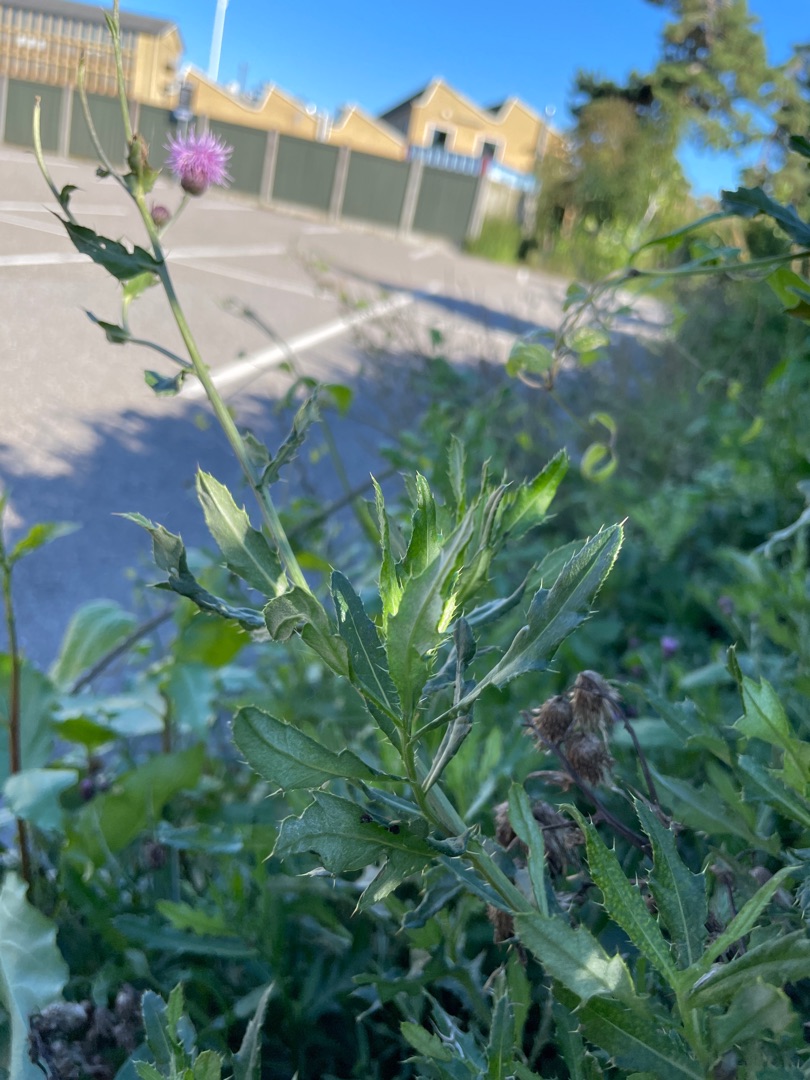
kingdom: Plantae
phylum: Tracheophyta
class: Magnoliopsida
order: Asterales
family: Asteraceae
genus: Cirsium
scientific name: Cirsium arvense
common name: Ager-tidsel
